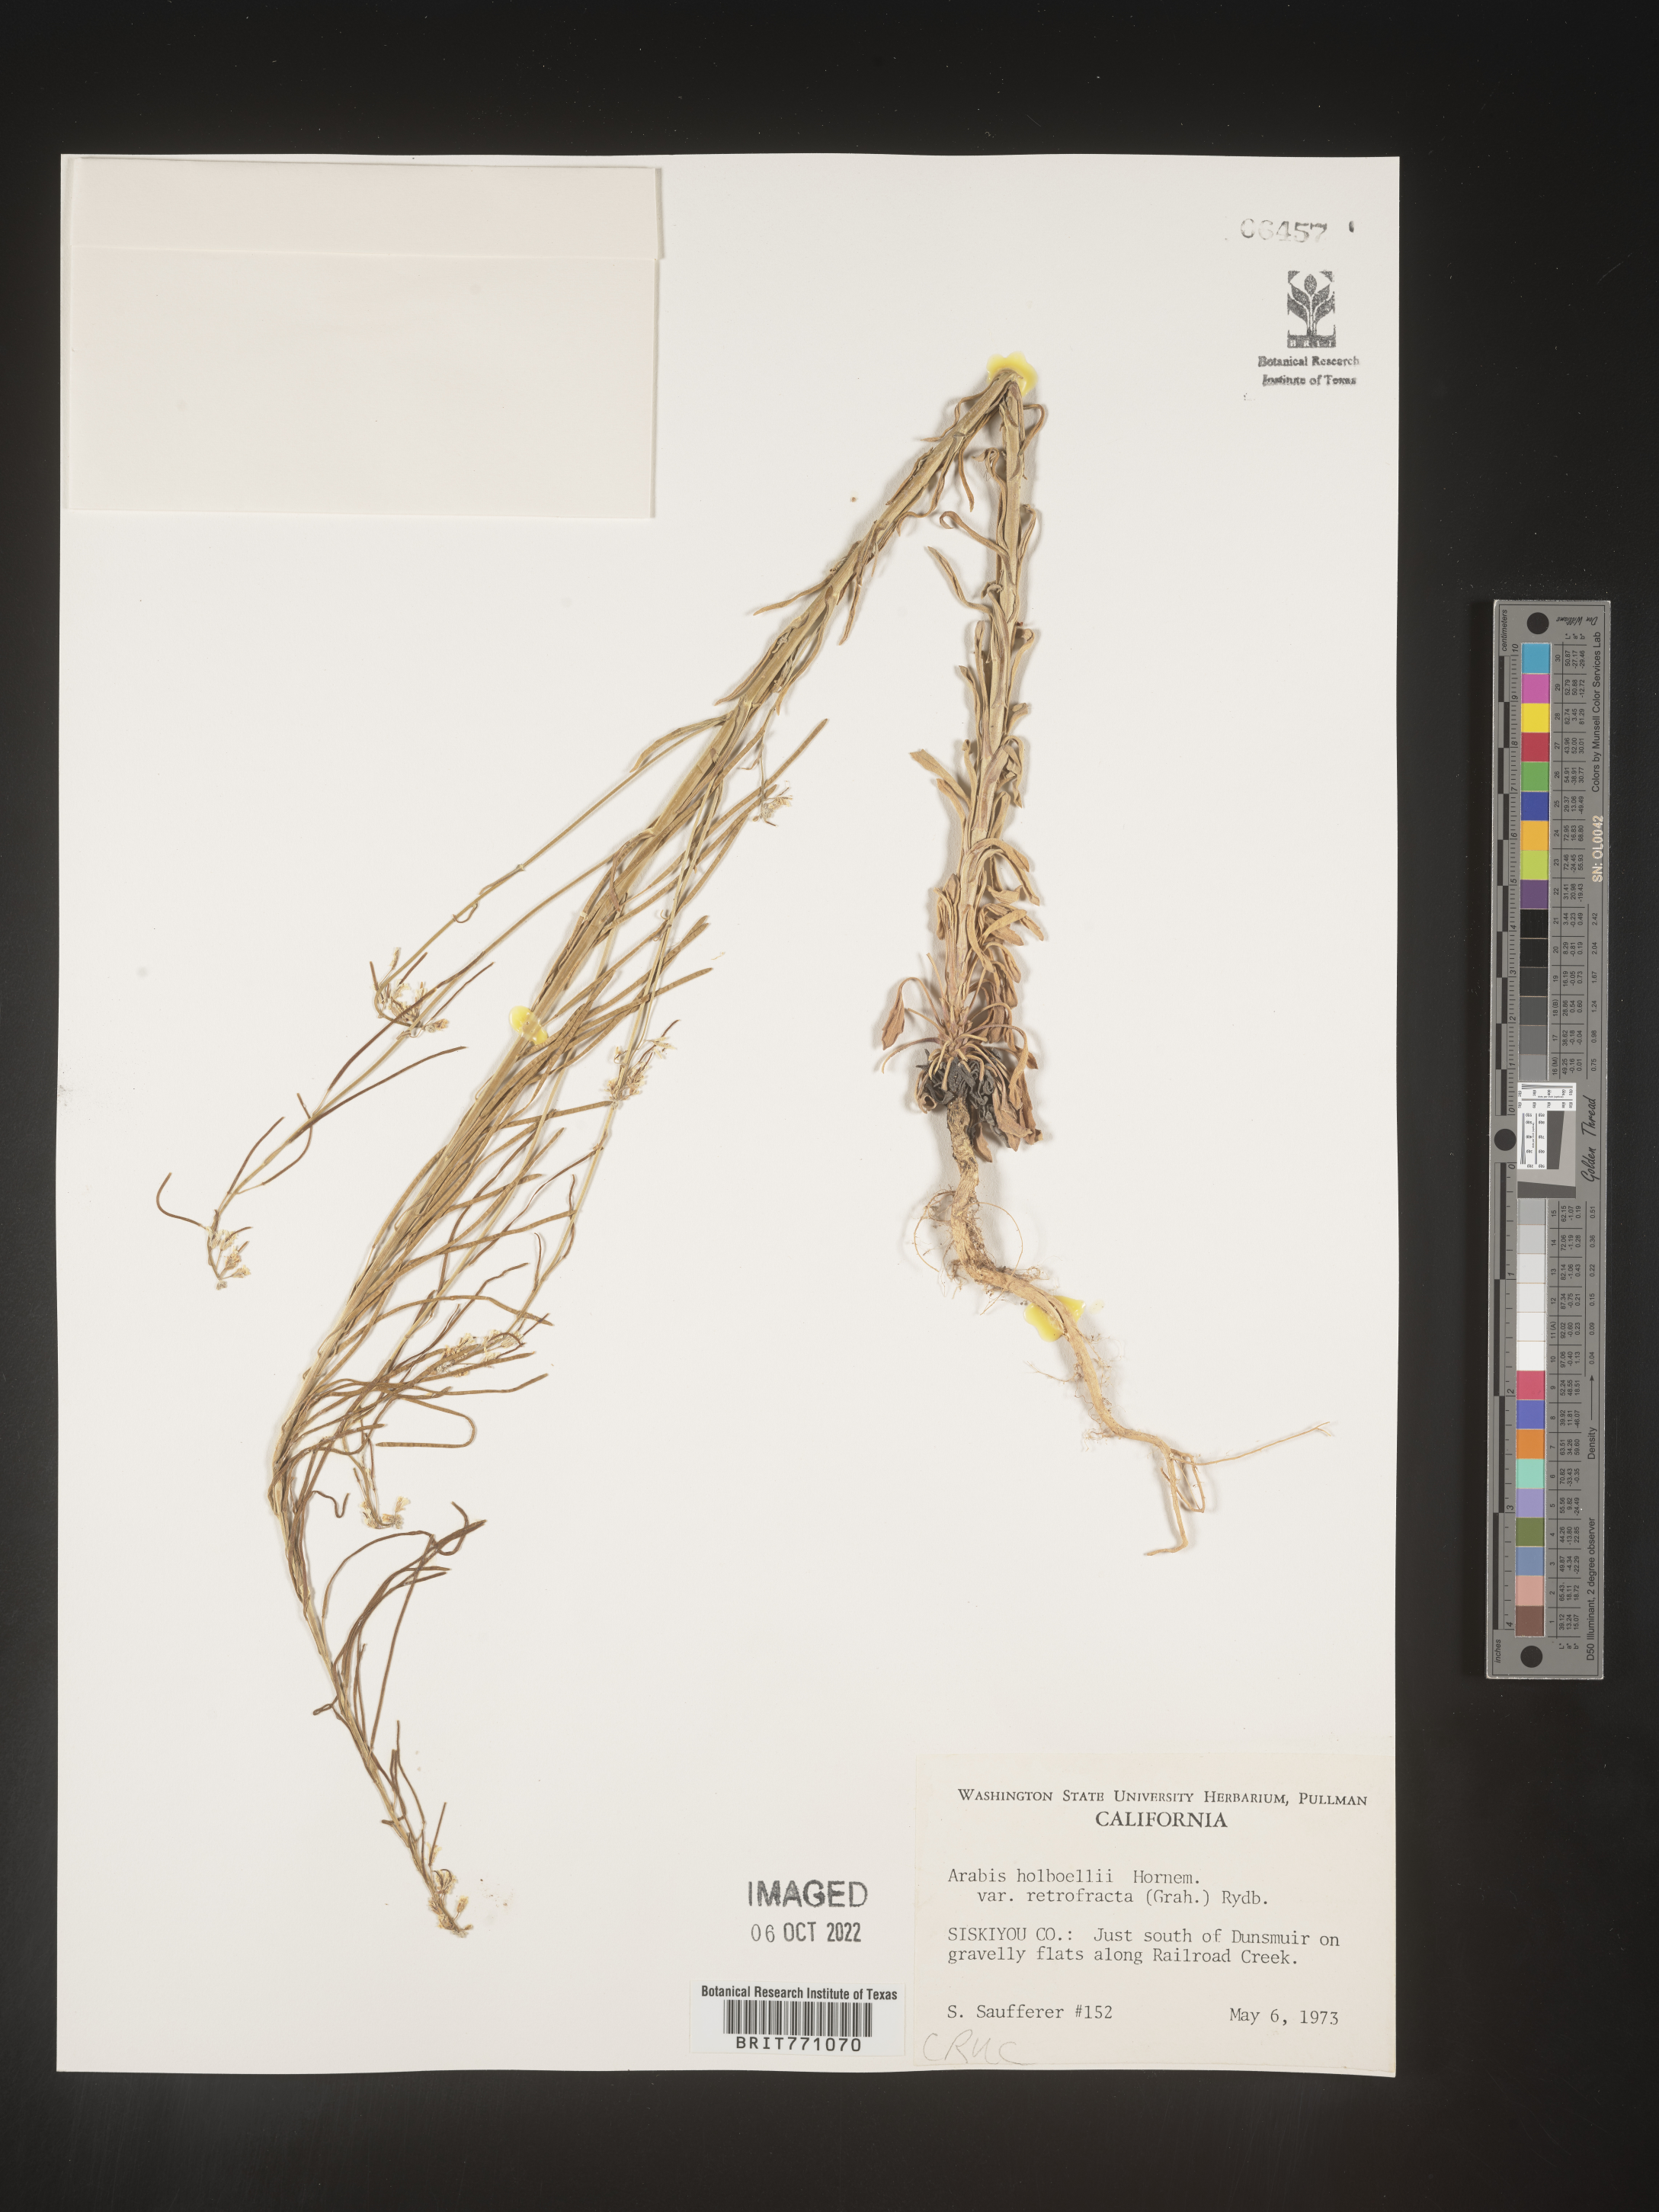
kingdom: Plantae
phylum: Tracheophyta
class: Magnoliopsida
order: Brassicales
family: Brassicaceae
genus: Boechera
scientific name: Boechera holboellii
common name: Holboell's rockcress
